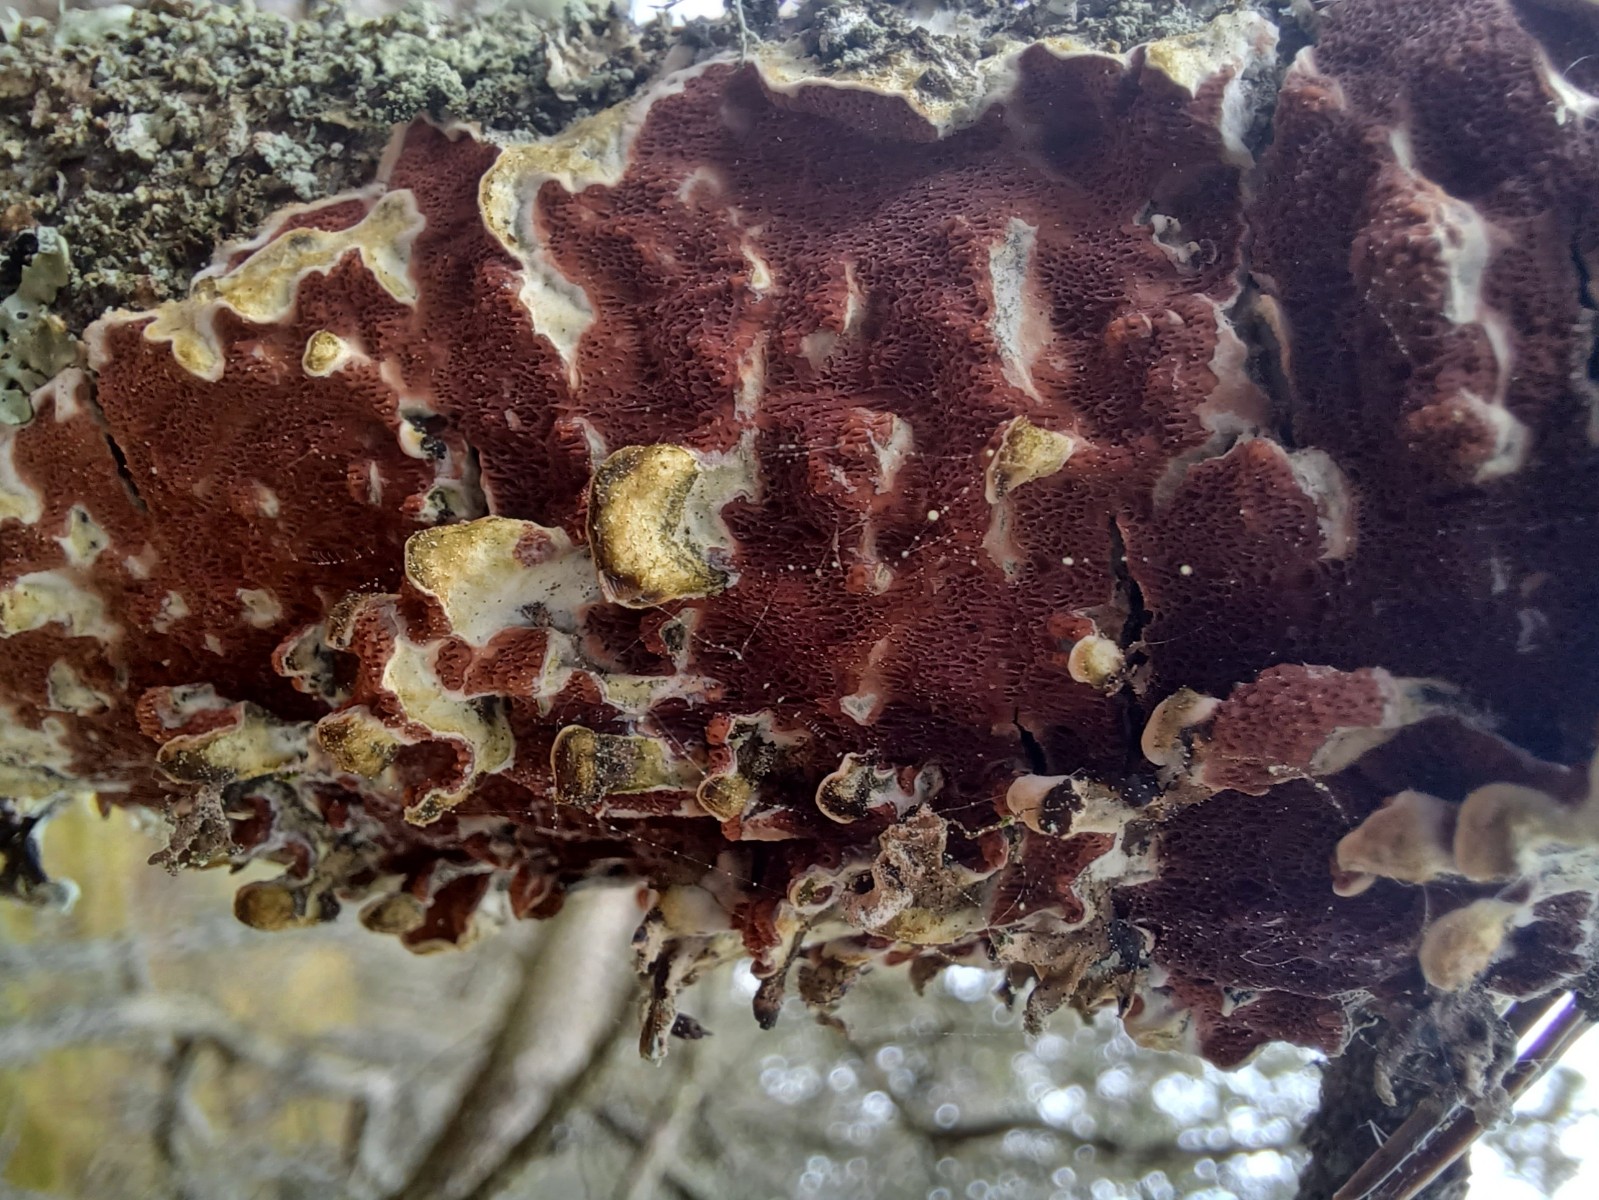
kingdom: Fungi
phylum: Basidiomycota
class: Agaricomycetes
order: Polyporales
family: Irpicaceae
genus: Meruliopsis
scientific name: Meruliopsis taxicola
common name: purpurbrun foldporesvamp
